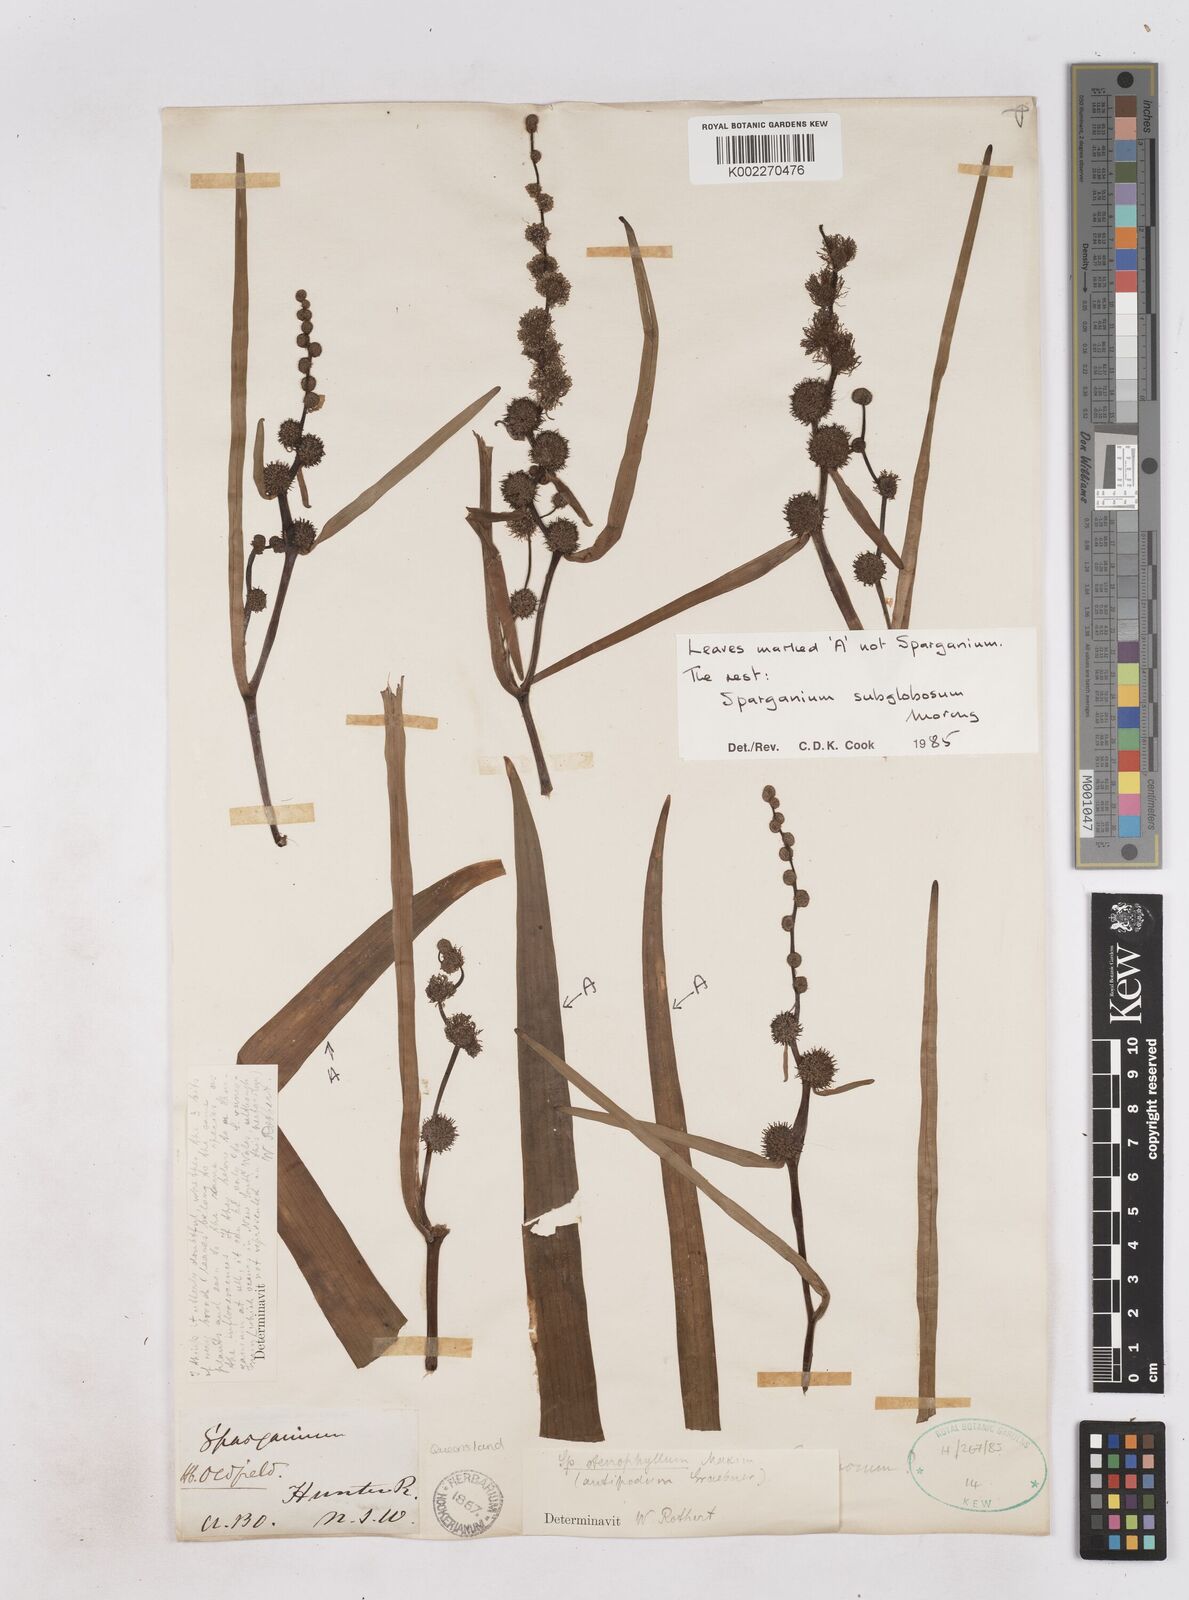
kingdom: Plantae
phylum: Tracheophyta
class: Liliopsida
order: Poales
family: Typhaceae
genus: Sparganium
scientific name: Sparganium subglobosum
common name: Burr­-reed
